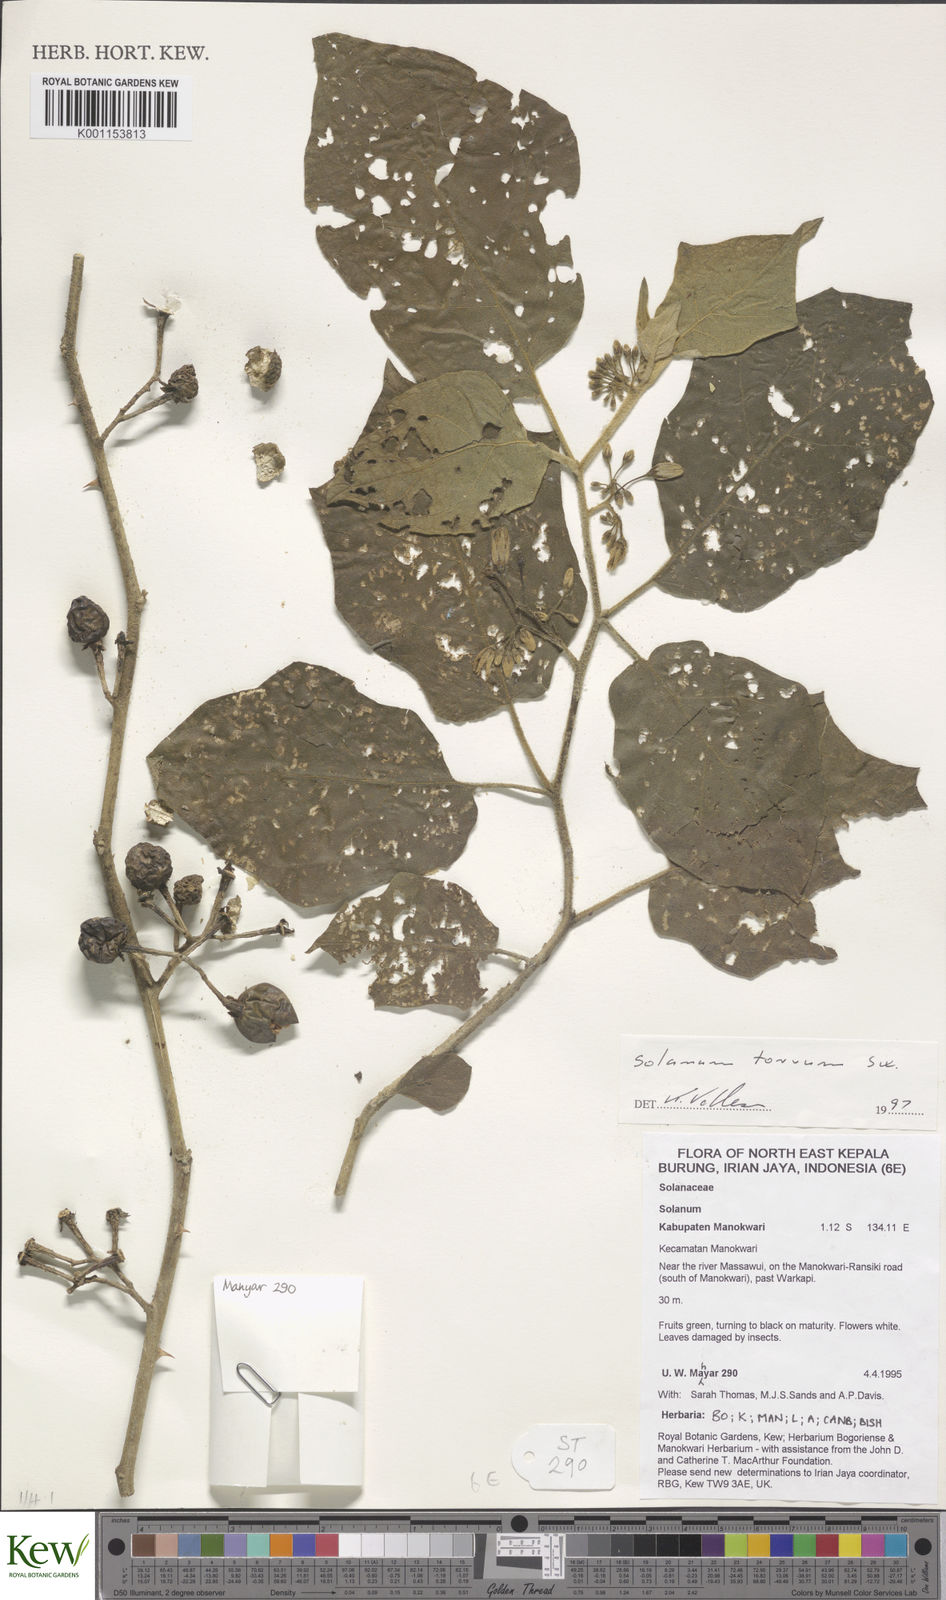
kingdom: Plantae
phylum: Tracheophyta
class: Magnoliopsida
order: Solanales
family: Solanaceae
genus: Solanum
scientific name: Solanum torvum
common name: Turkey berry
